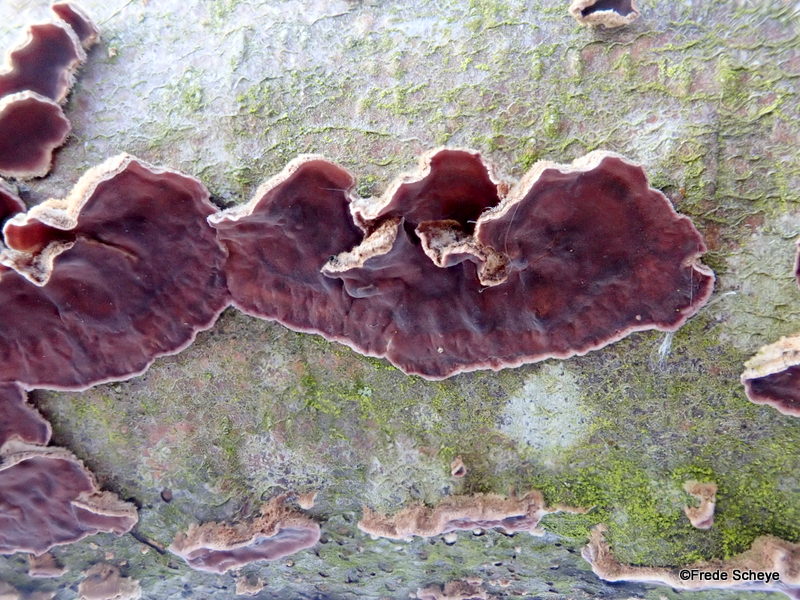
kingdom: Fungi
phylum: Basidiomycota
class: Agaricomycetes
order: Agaricales
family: Cyphellaceae
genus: Chondrostereum
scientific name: Chondrostereum purpureum
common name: purpurlædersvamp
